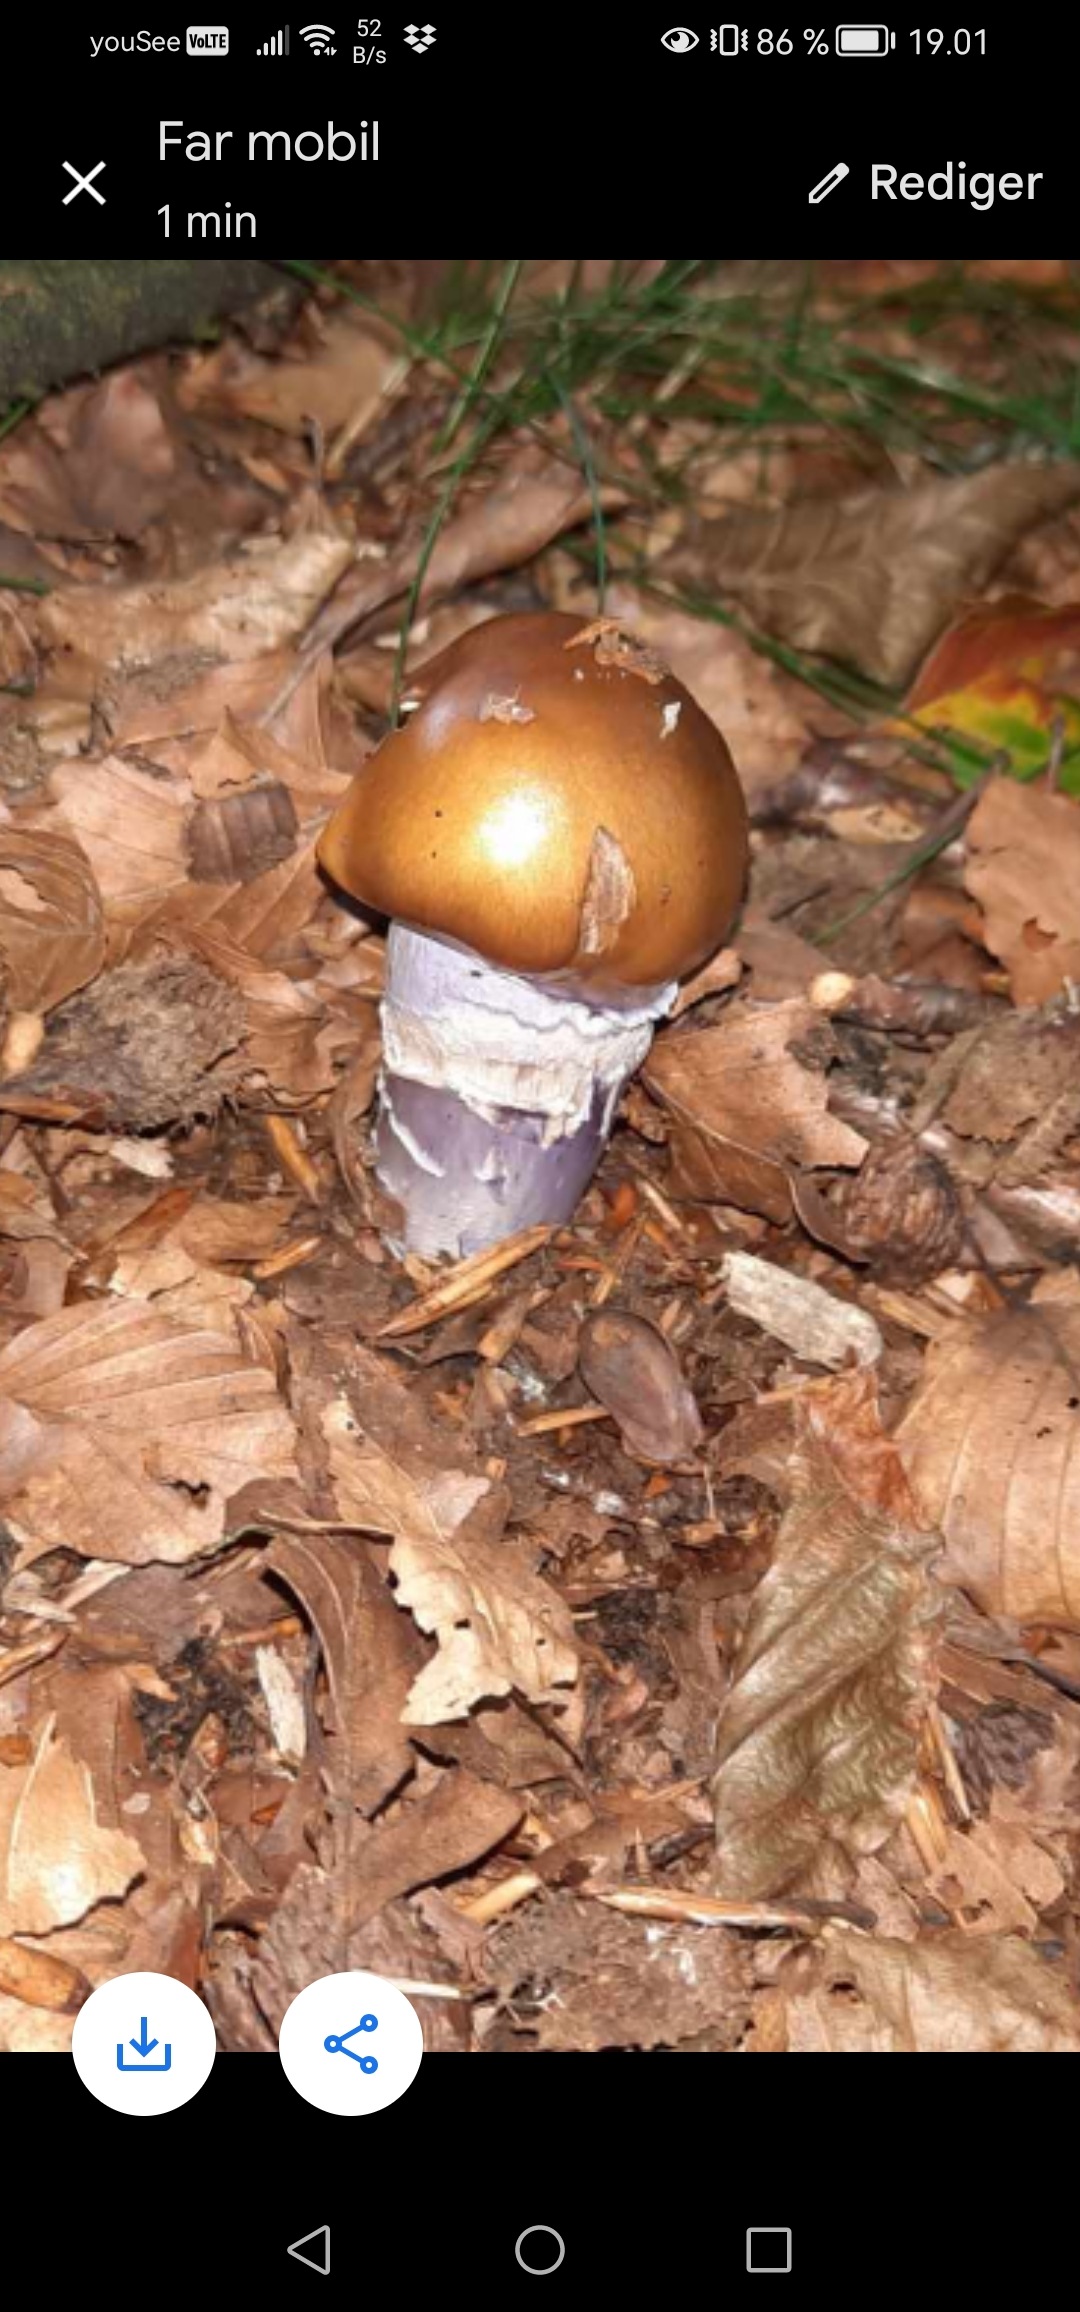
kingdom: Fungi
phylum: Basidiomycota
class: Agaricomycetes
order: Agaricales
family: Cortinariaceae
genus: Cortinarius
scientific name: Cortinarius
